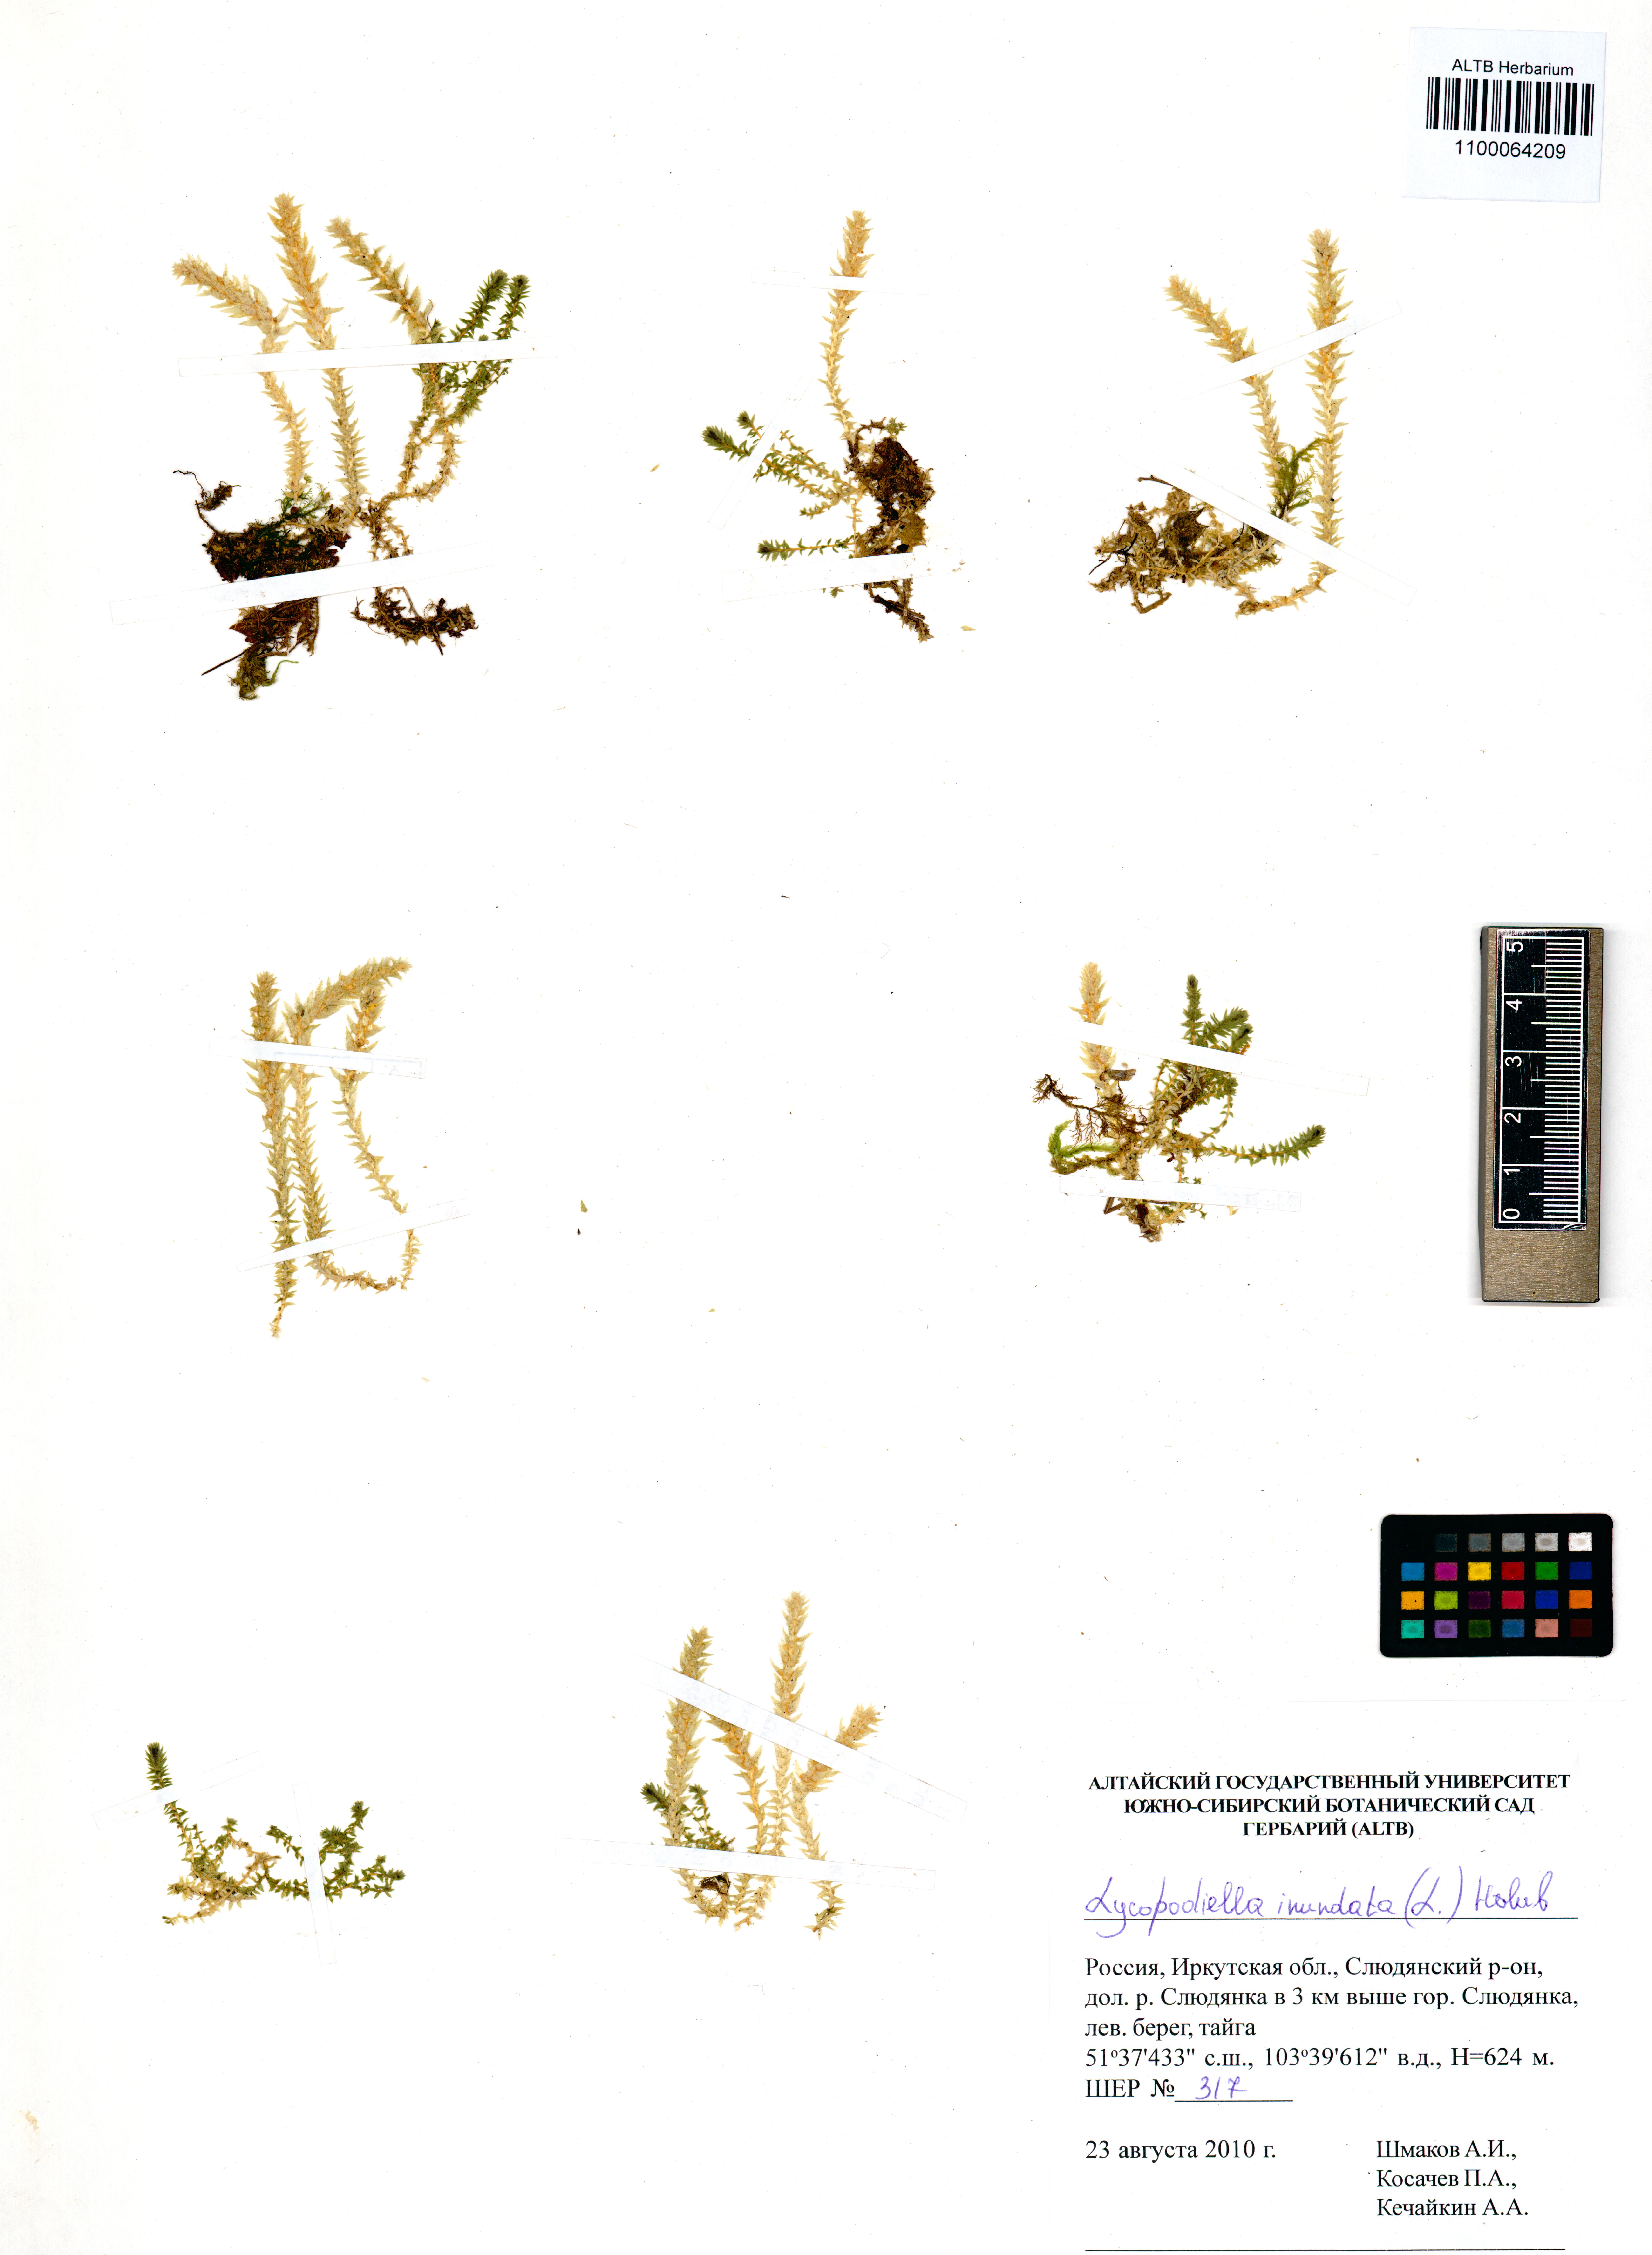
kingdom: Plantae
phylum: Tracheophyta
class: Lycopodiopsida
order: Lycopodiales
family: Lycopodiaceae
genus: Lycopodiella
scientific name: Lycopodiella inundata
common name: Marsh clubmoss
